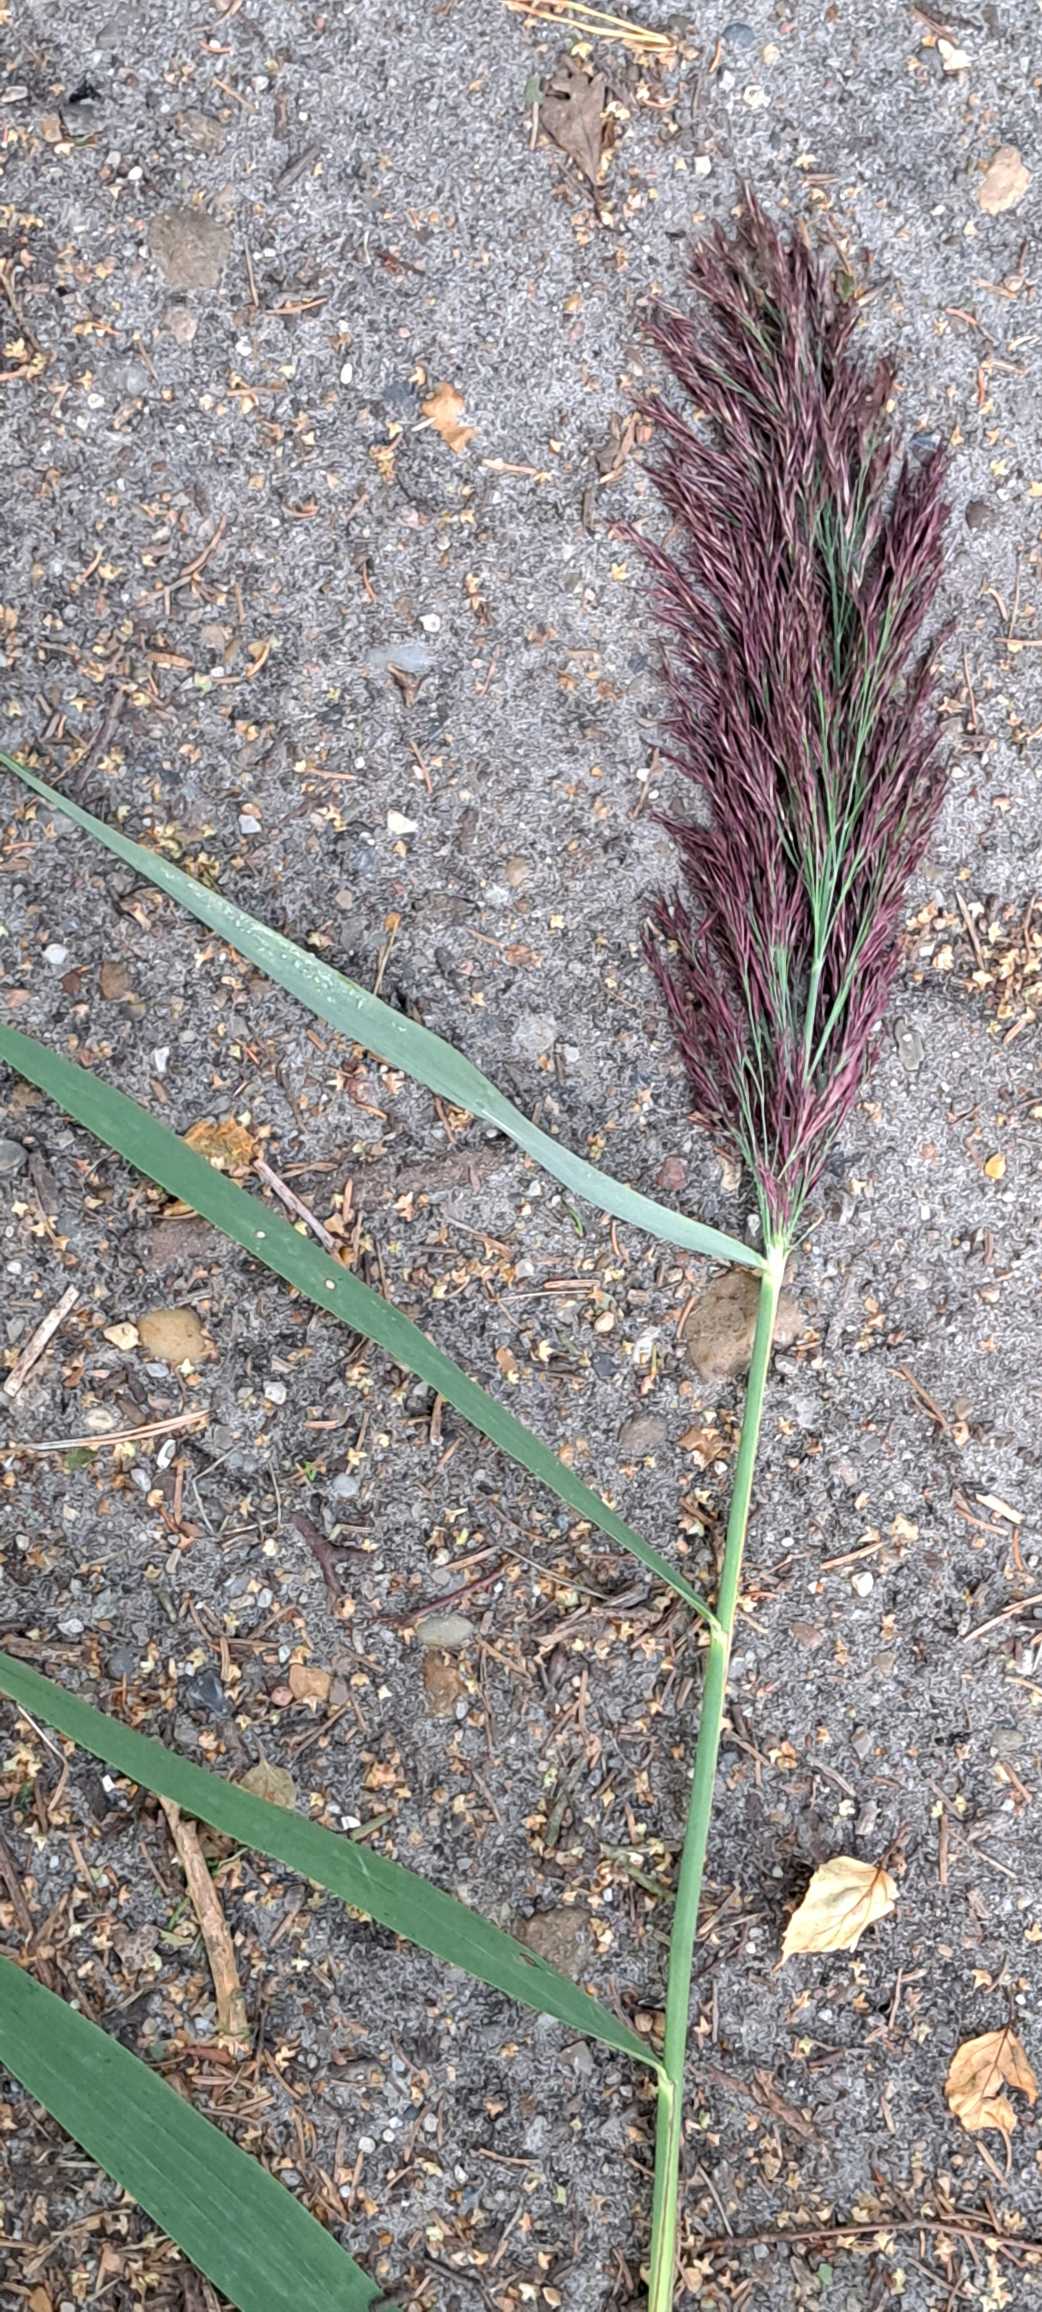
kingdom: Plantae
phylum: Tracheophyta
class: Liliopsida
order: Poales
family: Poaceae
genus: Phragmites
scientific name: Phragmites australis
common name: Tagrør
